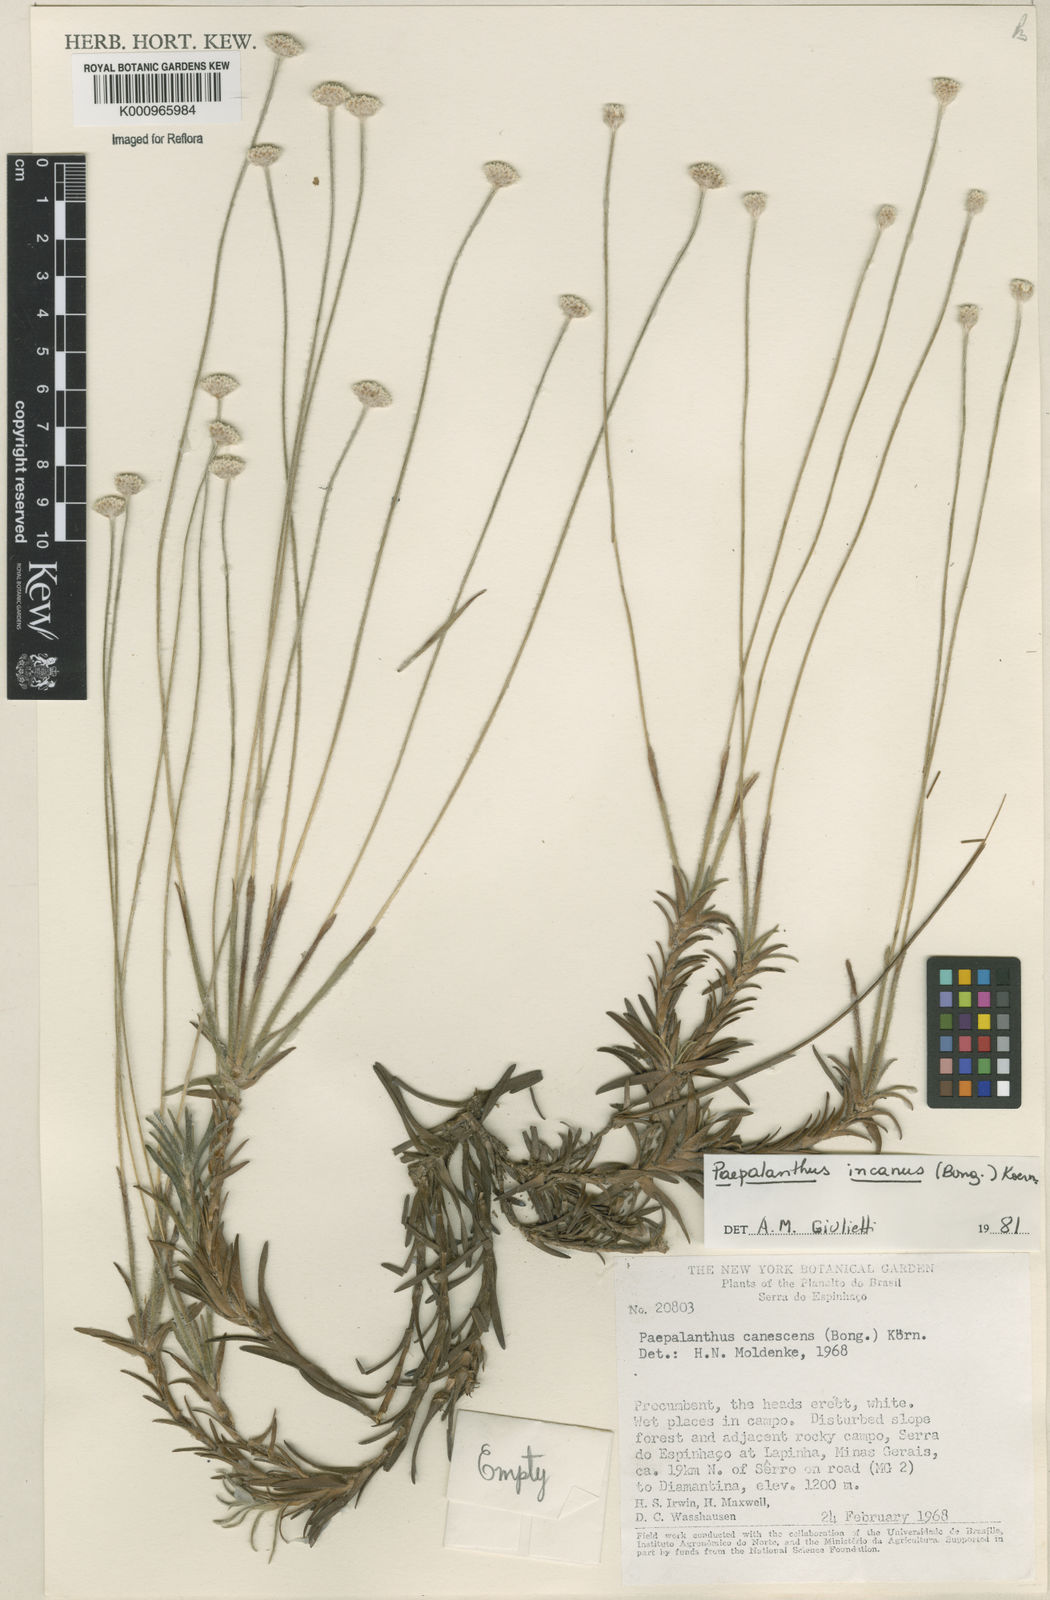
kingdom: Plantae
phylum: Tracheophyta
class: Liliopsida
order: Poales
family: Eriocaulaceae
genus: Paepalanthus
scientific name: Paepalanthus
